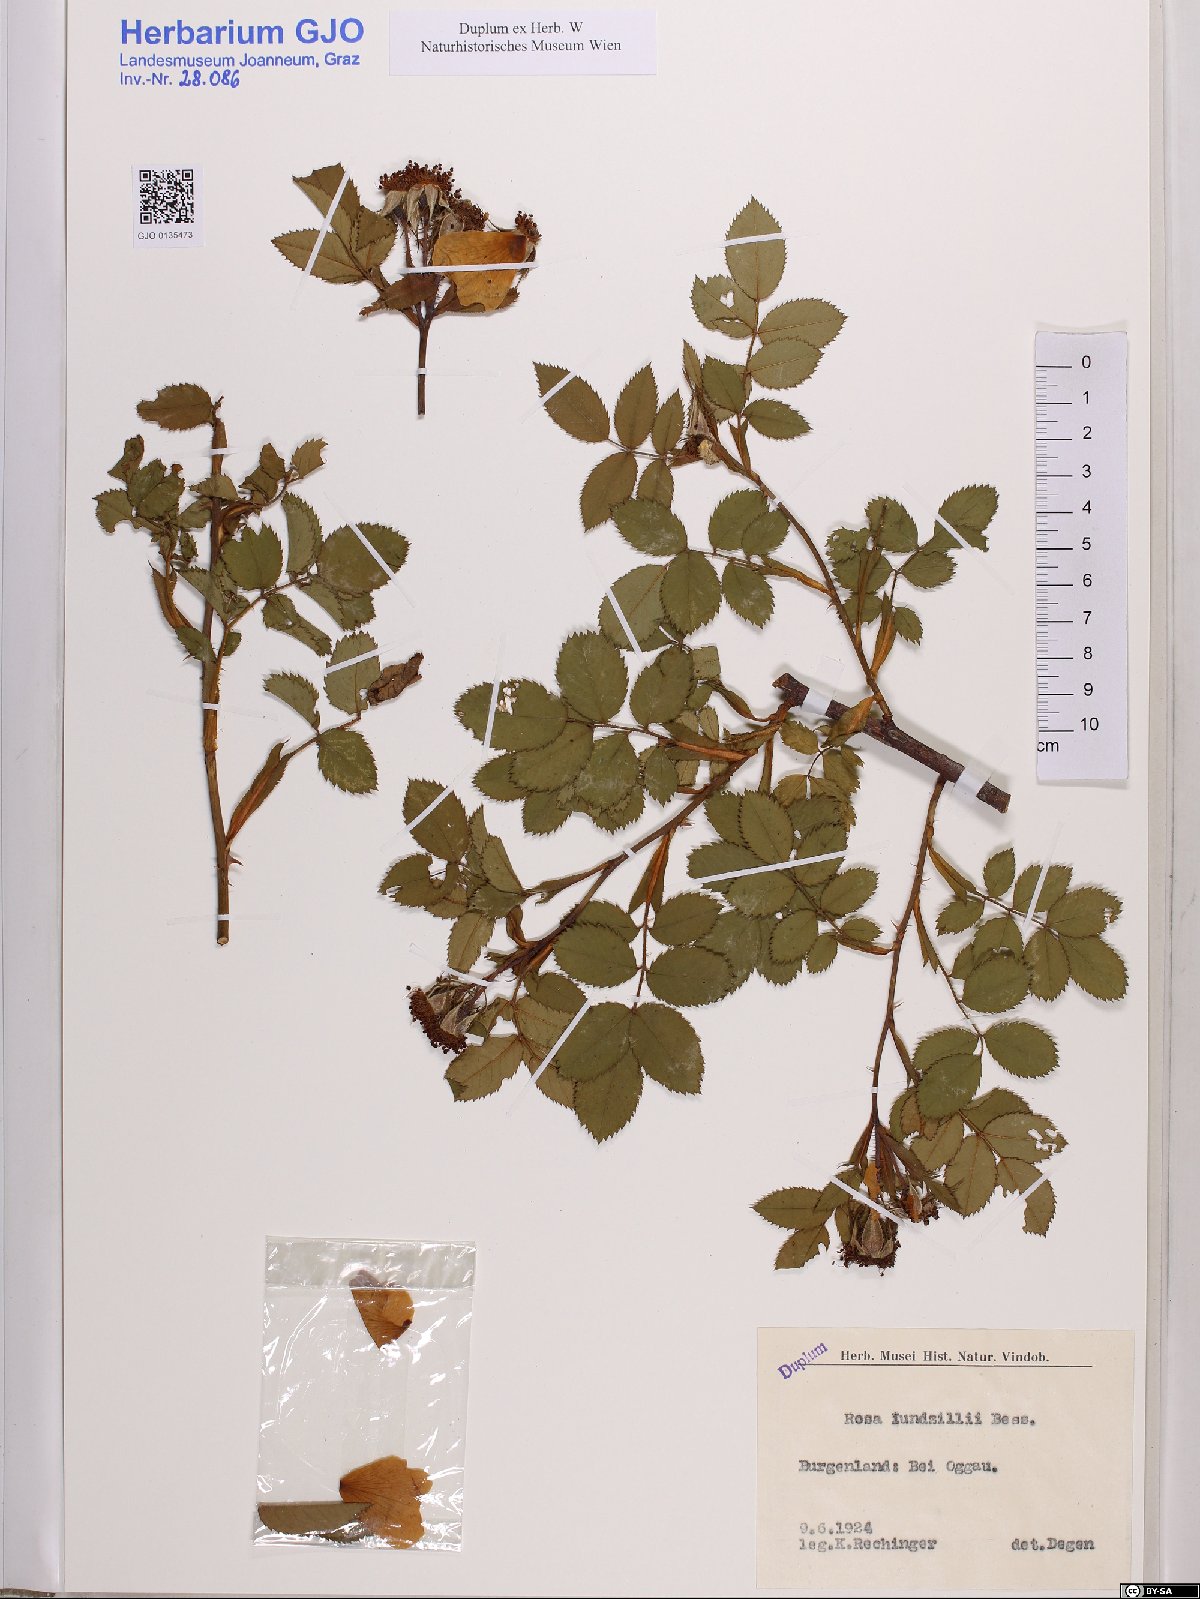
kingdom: Plantae
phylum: Tracheophyta
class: Magnoliopsida
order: Rosales
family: Rosaceae
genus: Rosa
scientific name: Rosa marginata
